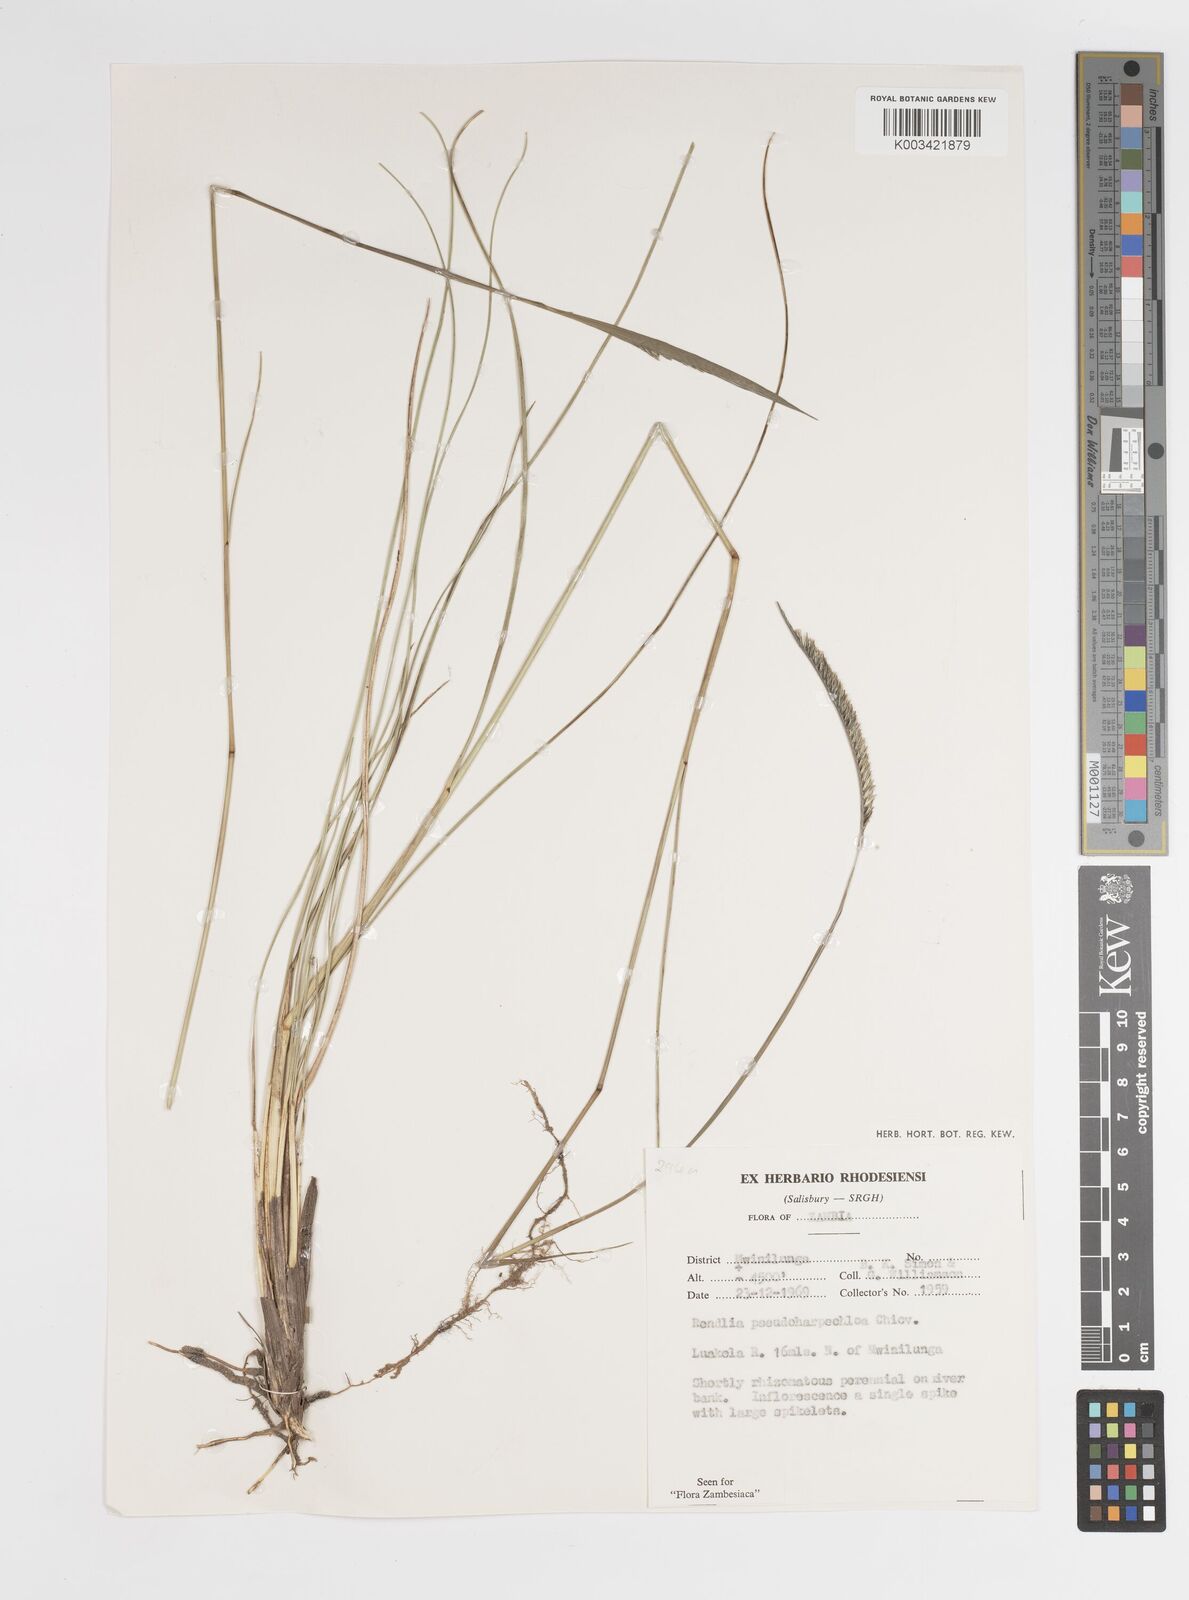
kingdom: Plantae
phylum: Tracheophyta
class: Liliopsida
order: Poales
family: Poaceae
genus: Harpochloa
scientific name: Harpochloa pseudoharpechloa
